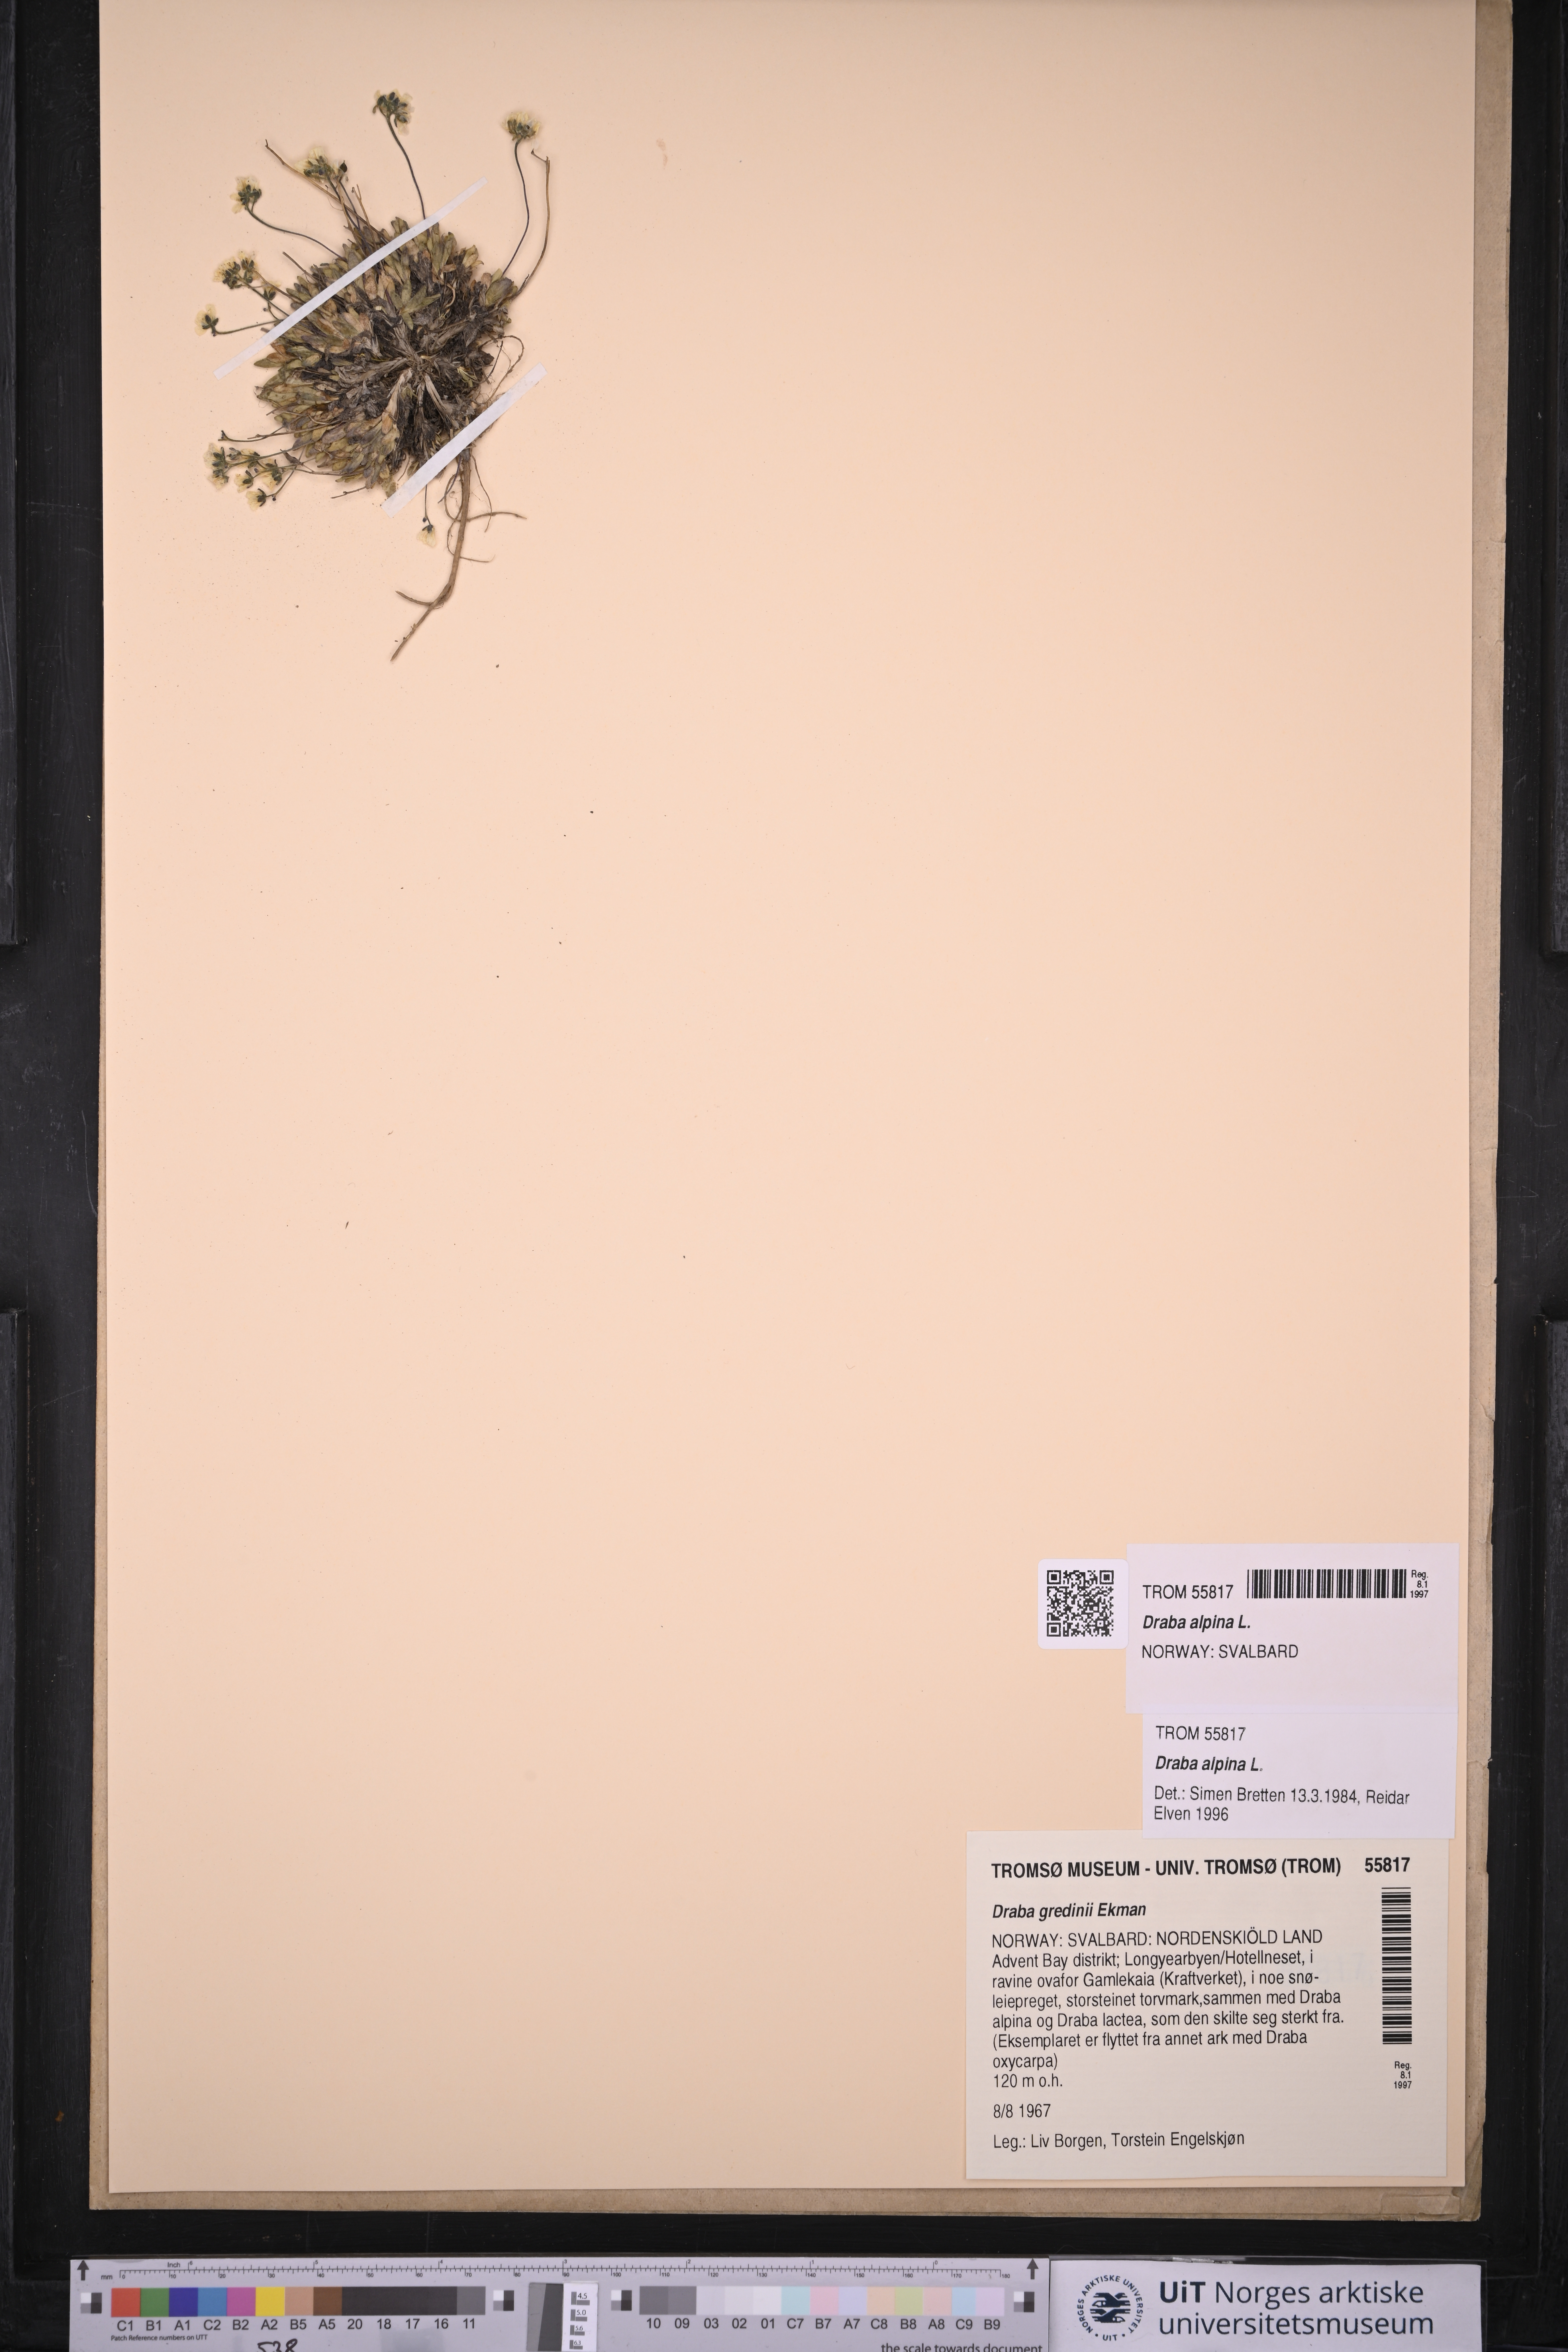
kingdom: Plantae
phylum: Tracheophyta
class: Magnoliopsida
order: Brassicales
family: Brassicaceae
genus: Draba
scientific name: Draba alpina
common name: Alpine draba
